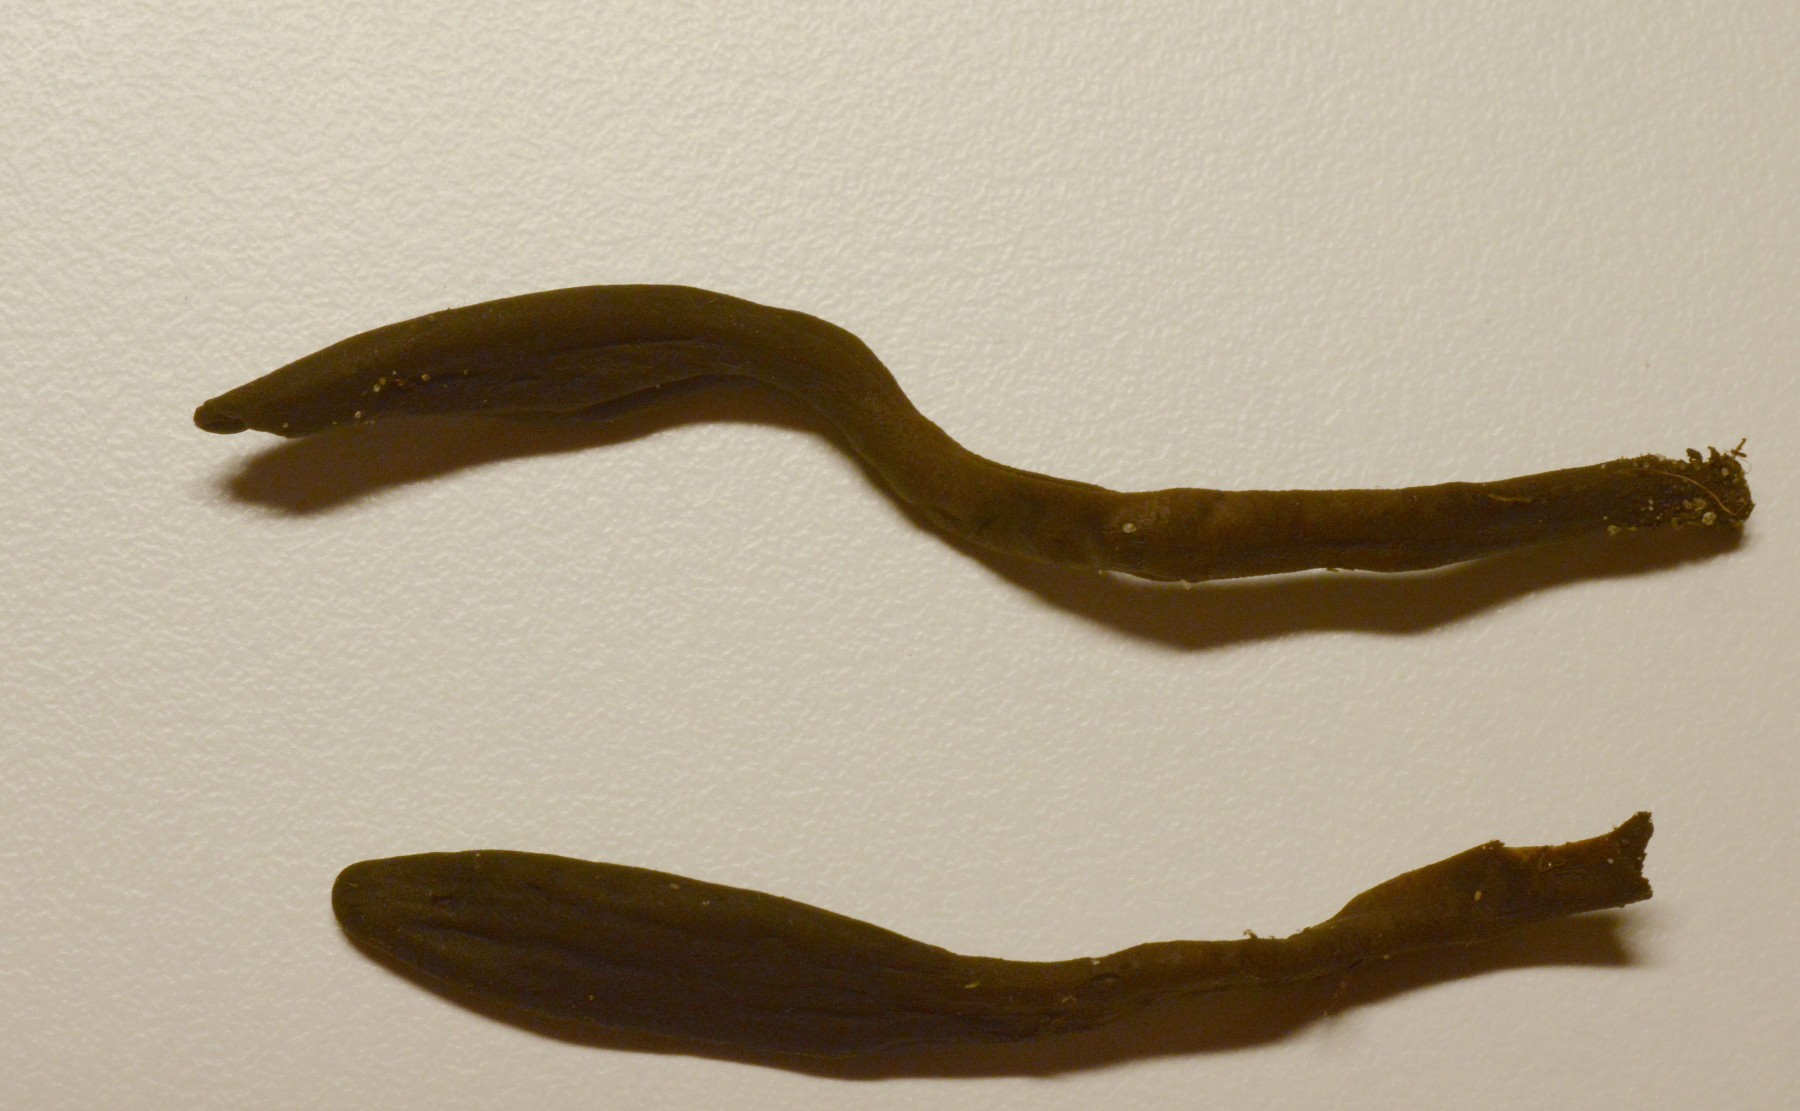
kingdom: Fungi
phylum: Ascomycota
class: Geoglossomycetes
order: Geoglossales
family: Geoglossaceae
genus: Geoglossum
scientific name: Geoglossum umbratile
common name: slank jordtunge
